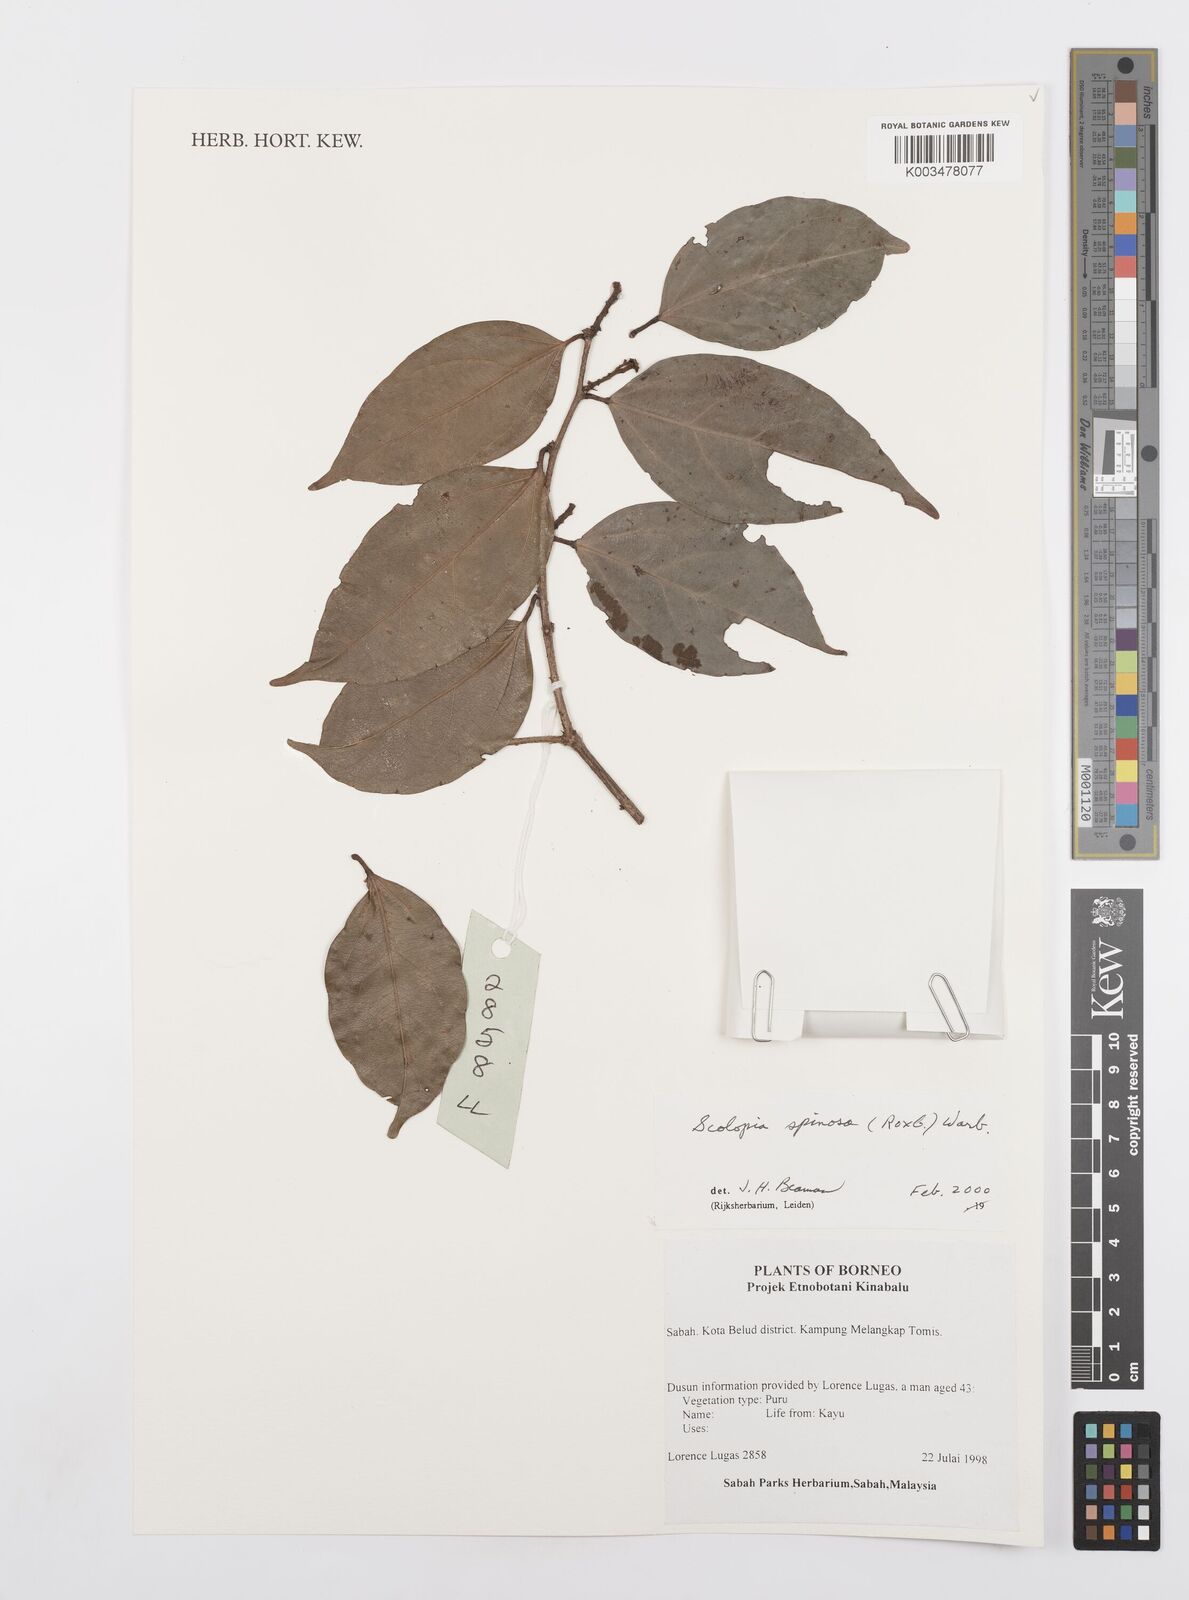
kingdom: Plantae
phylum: Tracheophyta
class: Magnoliopsida
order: Malpighiales
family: Salicaceae
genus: Scolopia
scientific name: Scolopia spinosa
